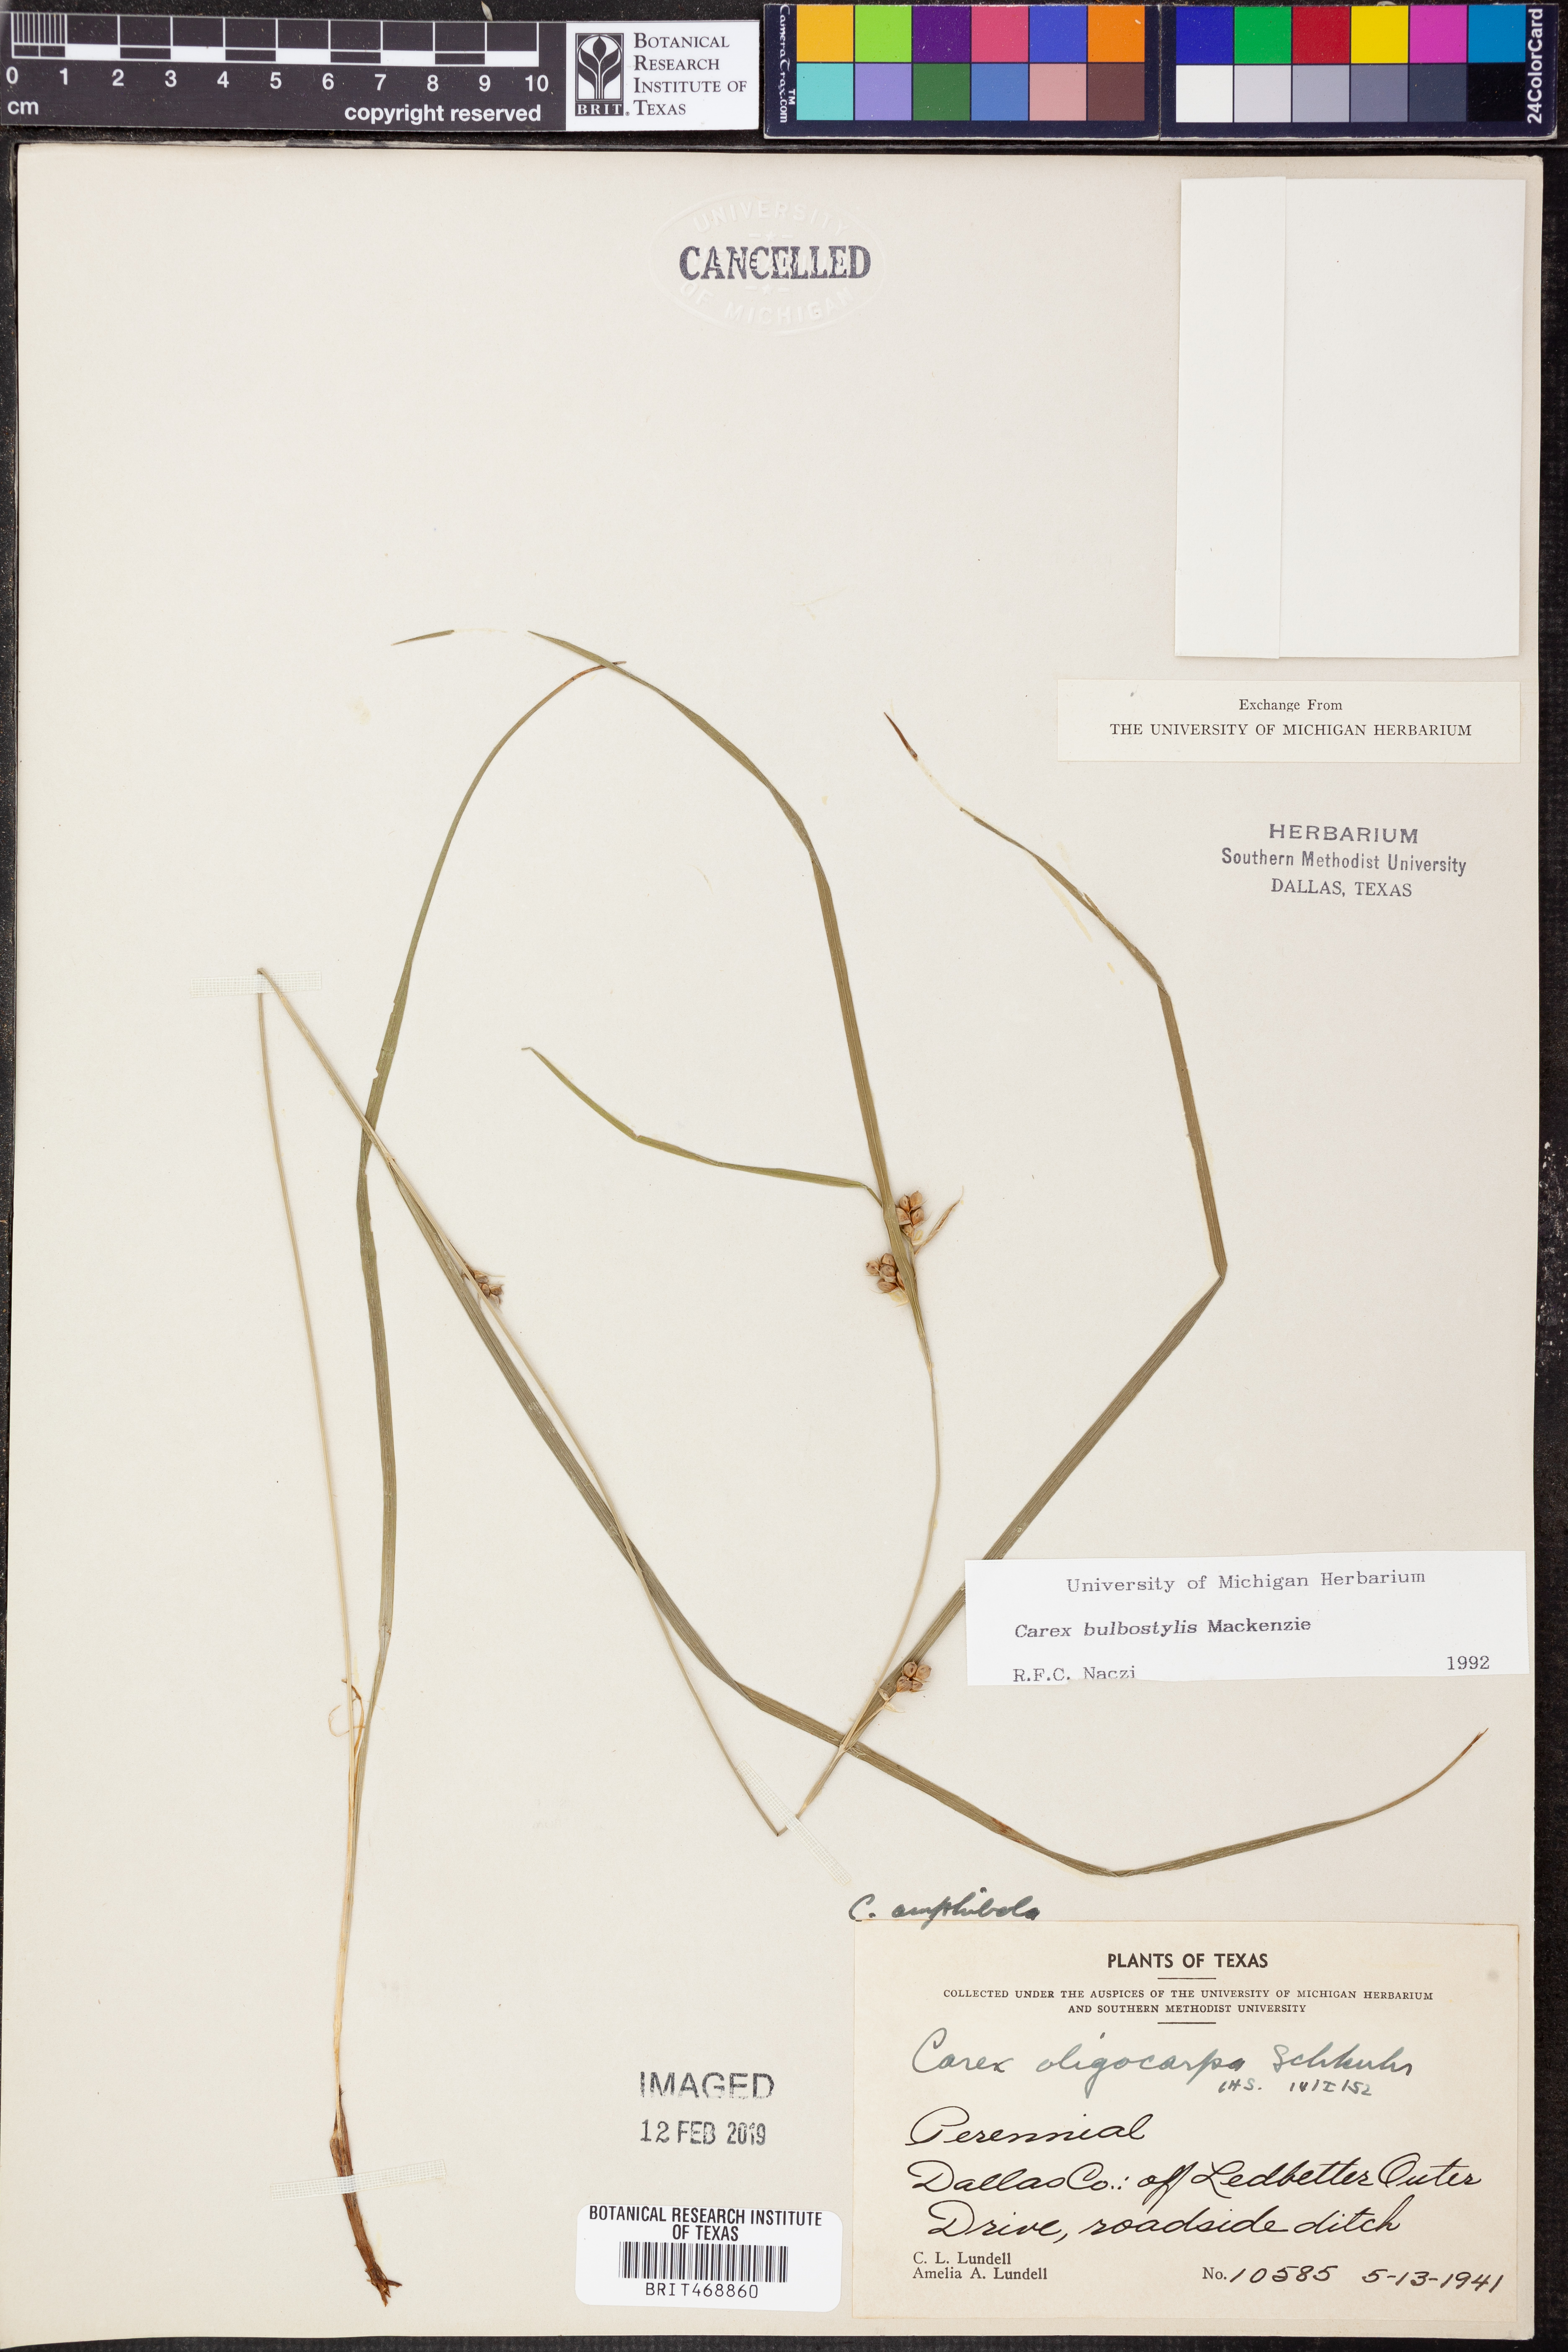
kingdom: Plantae
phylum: Tracheophyta
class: Liliopsida
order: Poales
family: Cyperaceae
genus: Carex
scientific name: Carex bulbostylis
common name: Eastern narrowleaf sedge
